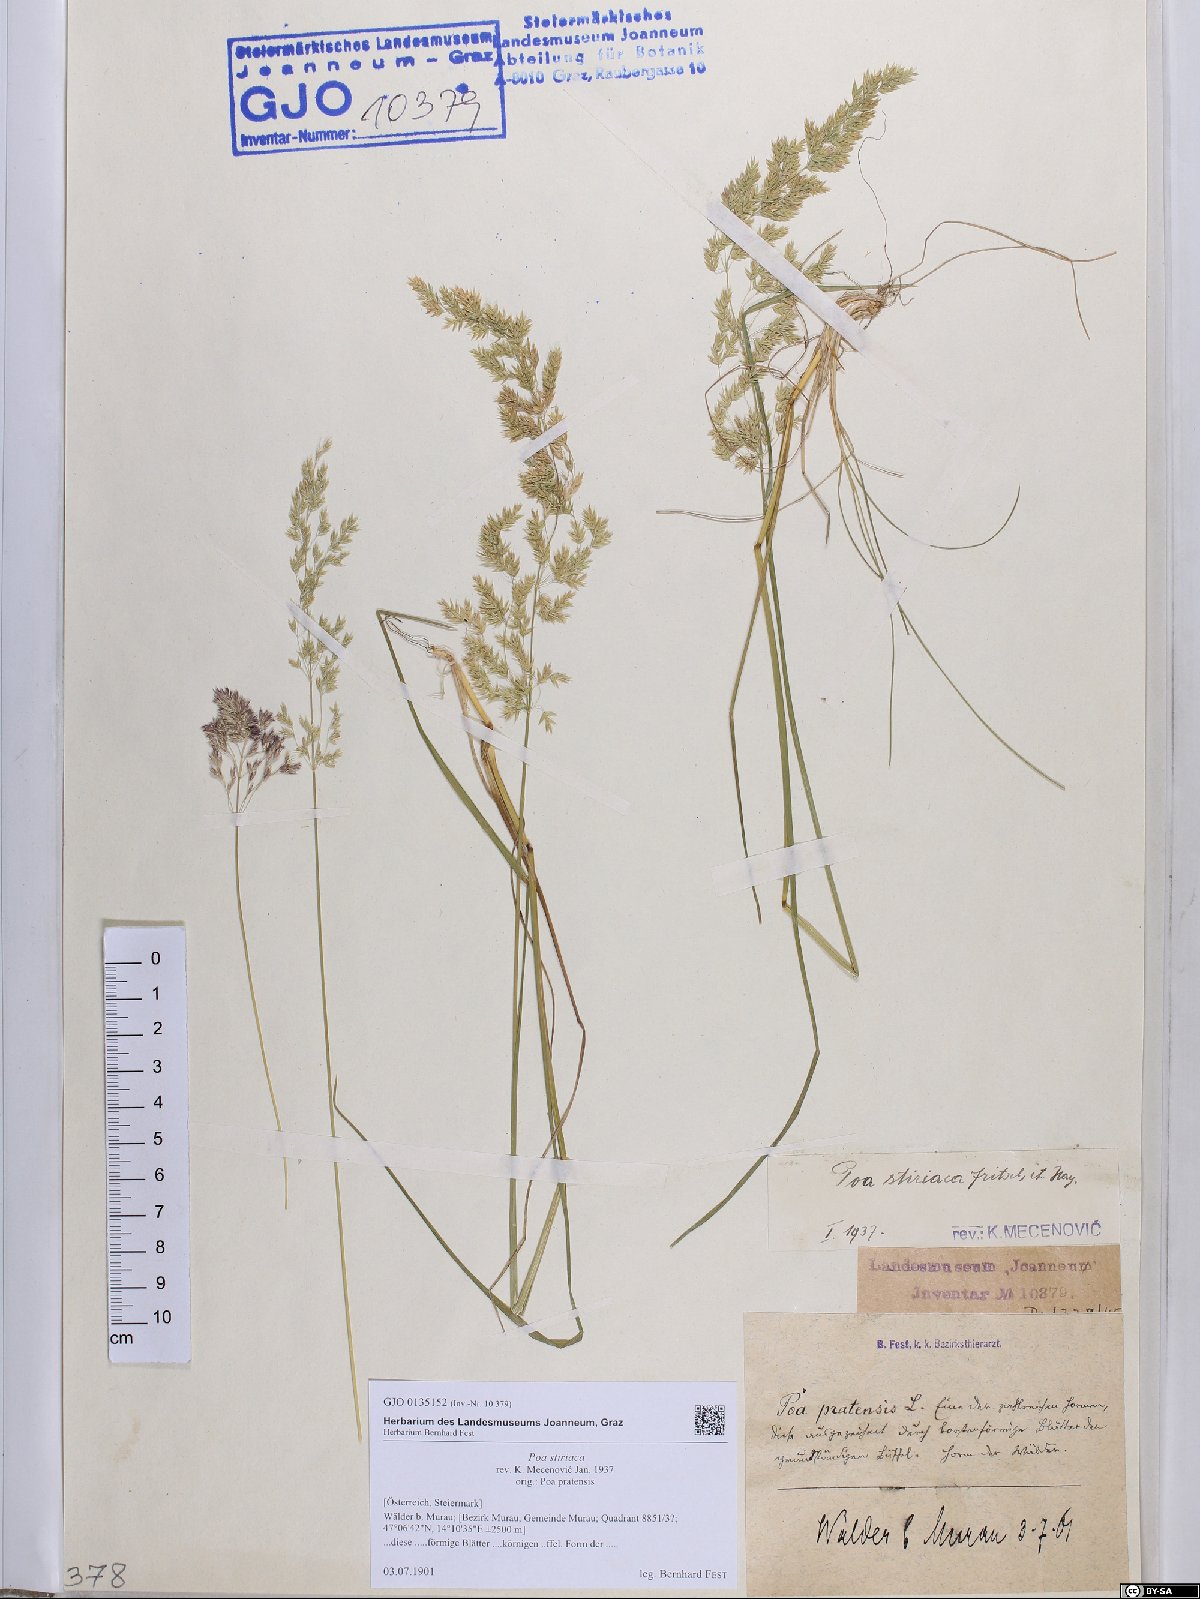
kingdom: Plantae
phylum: Tracheophyta
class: Liliopsida
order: Poales
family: Poaceae
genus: Poa
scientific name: Poa stiriaca
